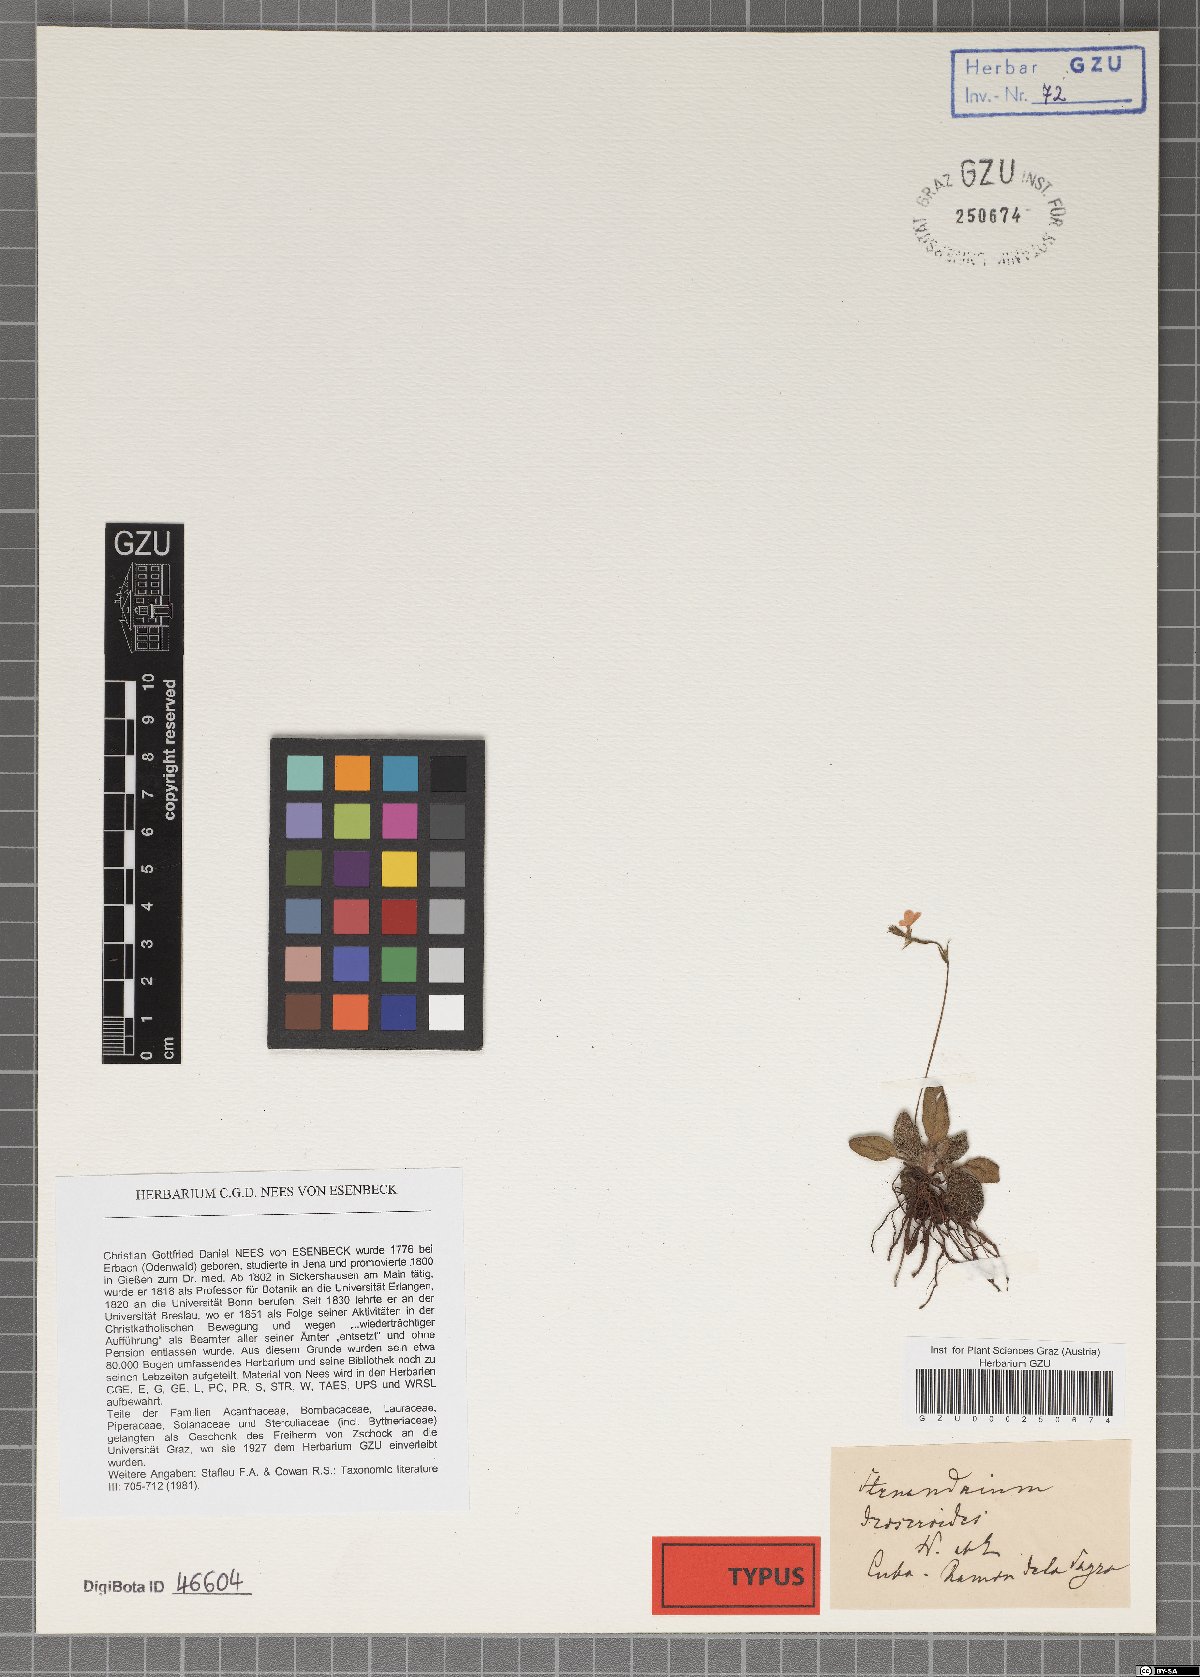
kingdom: Plantae
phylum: Tracheophyta
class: Magnoliopsida
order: Lamiales
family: Acanthaceae
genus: Stenandrium
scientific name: Stenandrium droseroides
